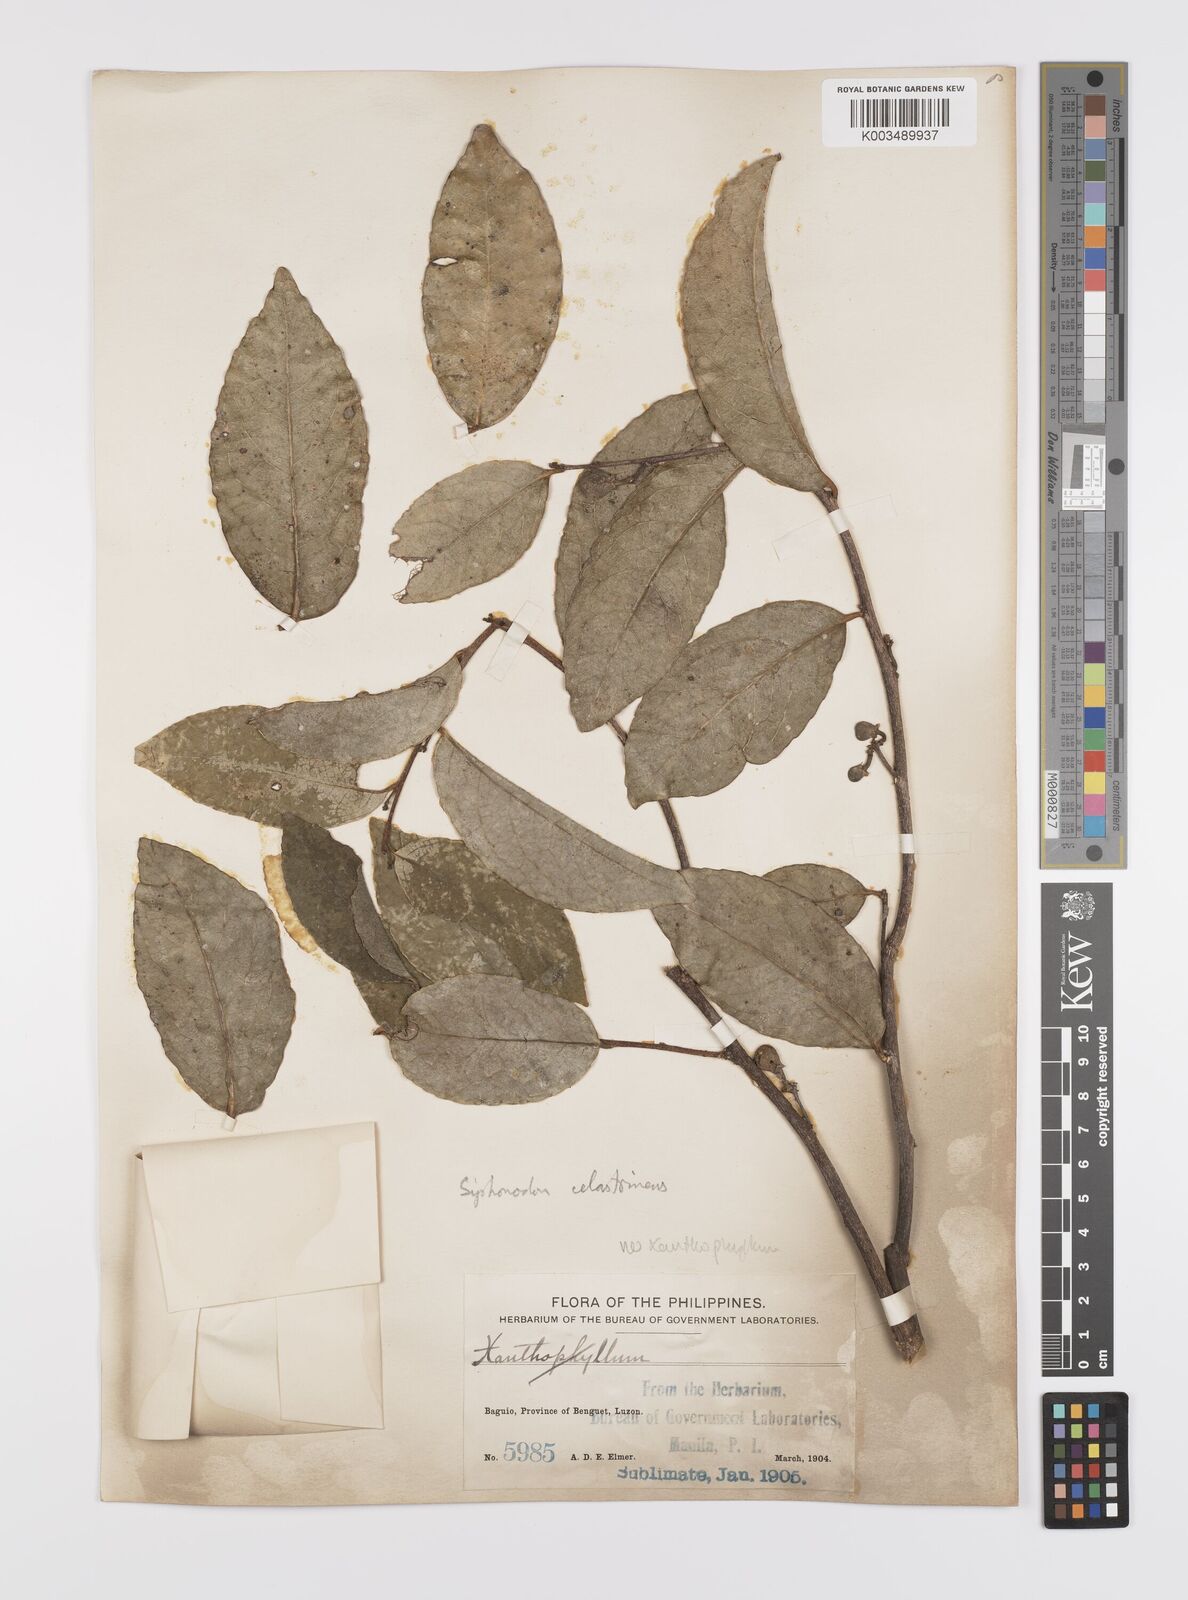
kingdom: Plantae
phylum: Tracheophyta
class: Magnoliopsida
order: Celastrales
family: Celastraceae
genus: Siphonodon
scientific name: Siphonodon celastrineus
